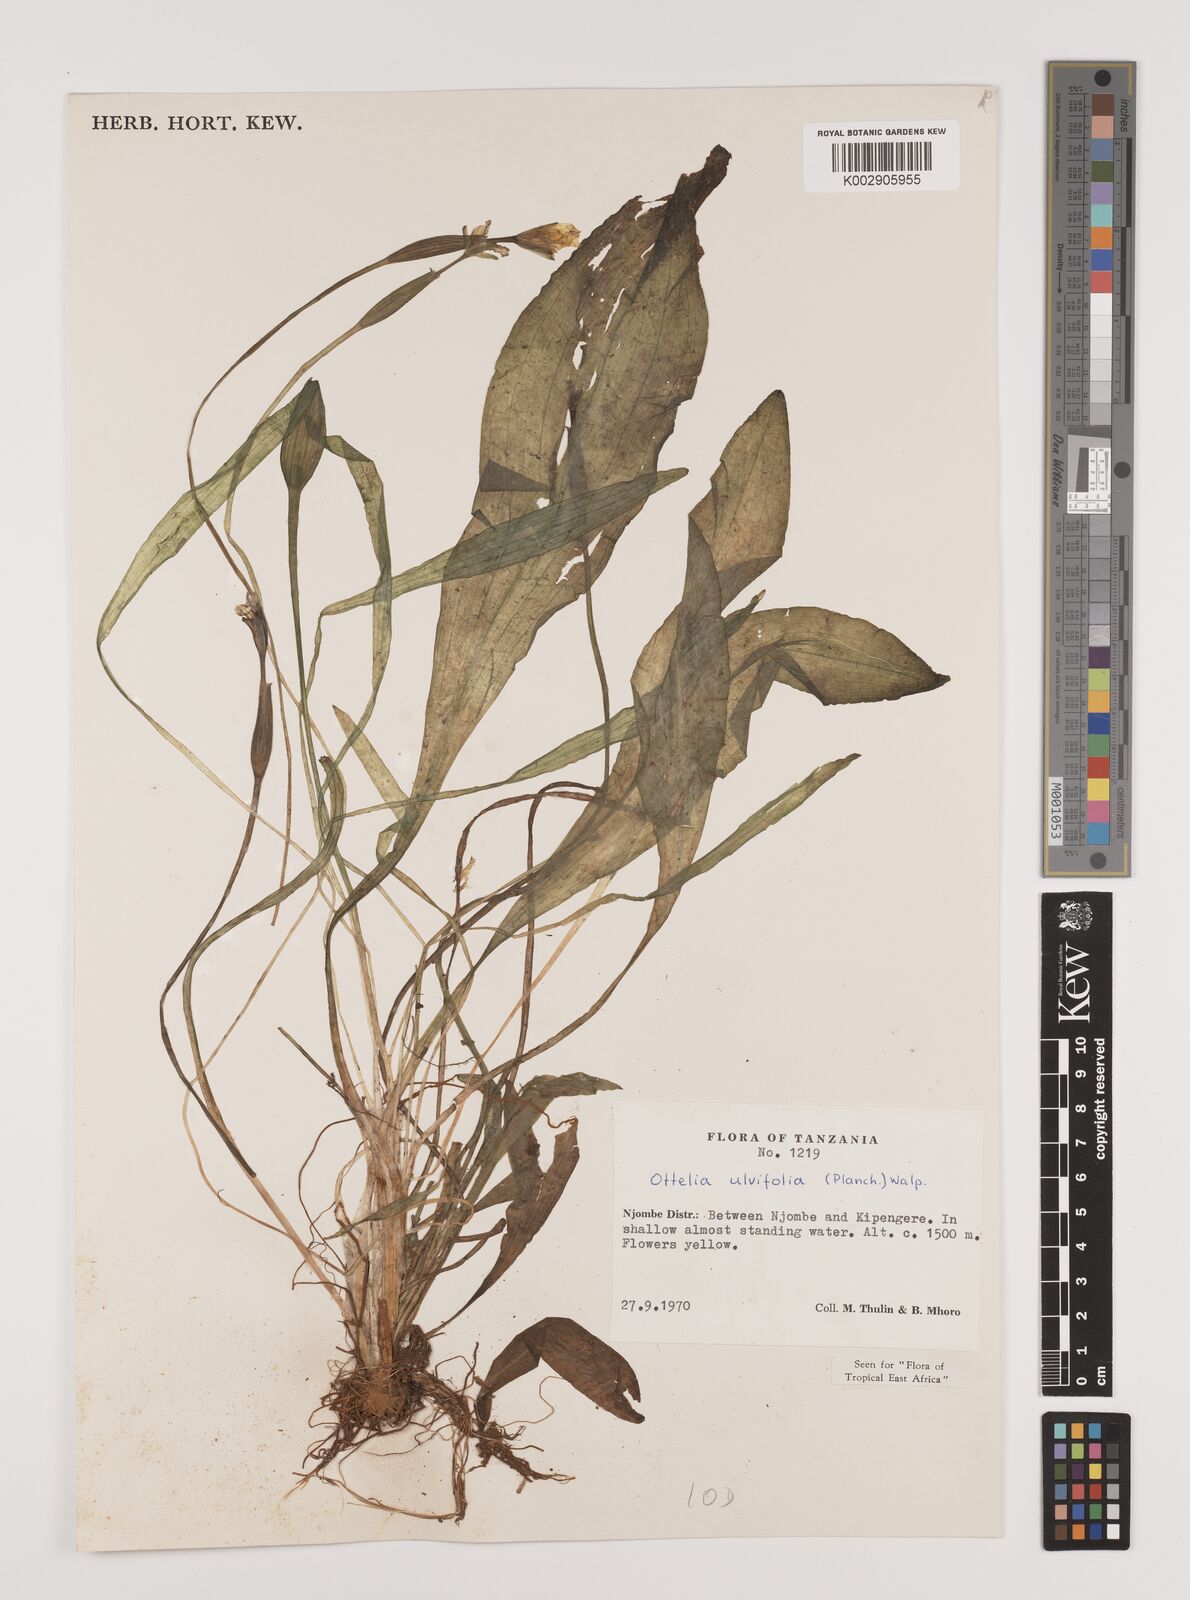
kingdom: Plantae
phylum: Tracheophyta
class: Liliopsida
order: Alismatales
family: Hydrocharitaceae
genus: Ottelia
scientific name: Ottelia ulvifolia
